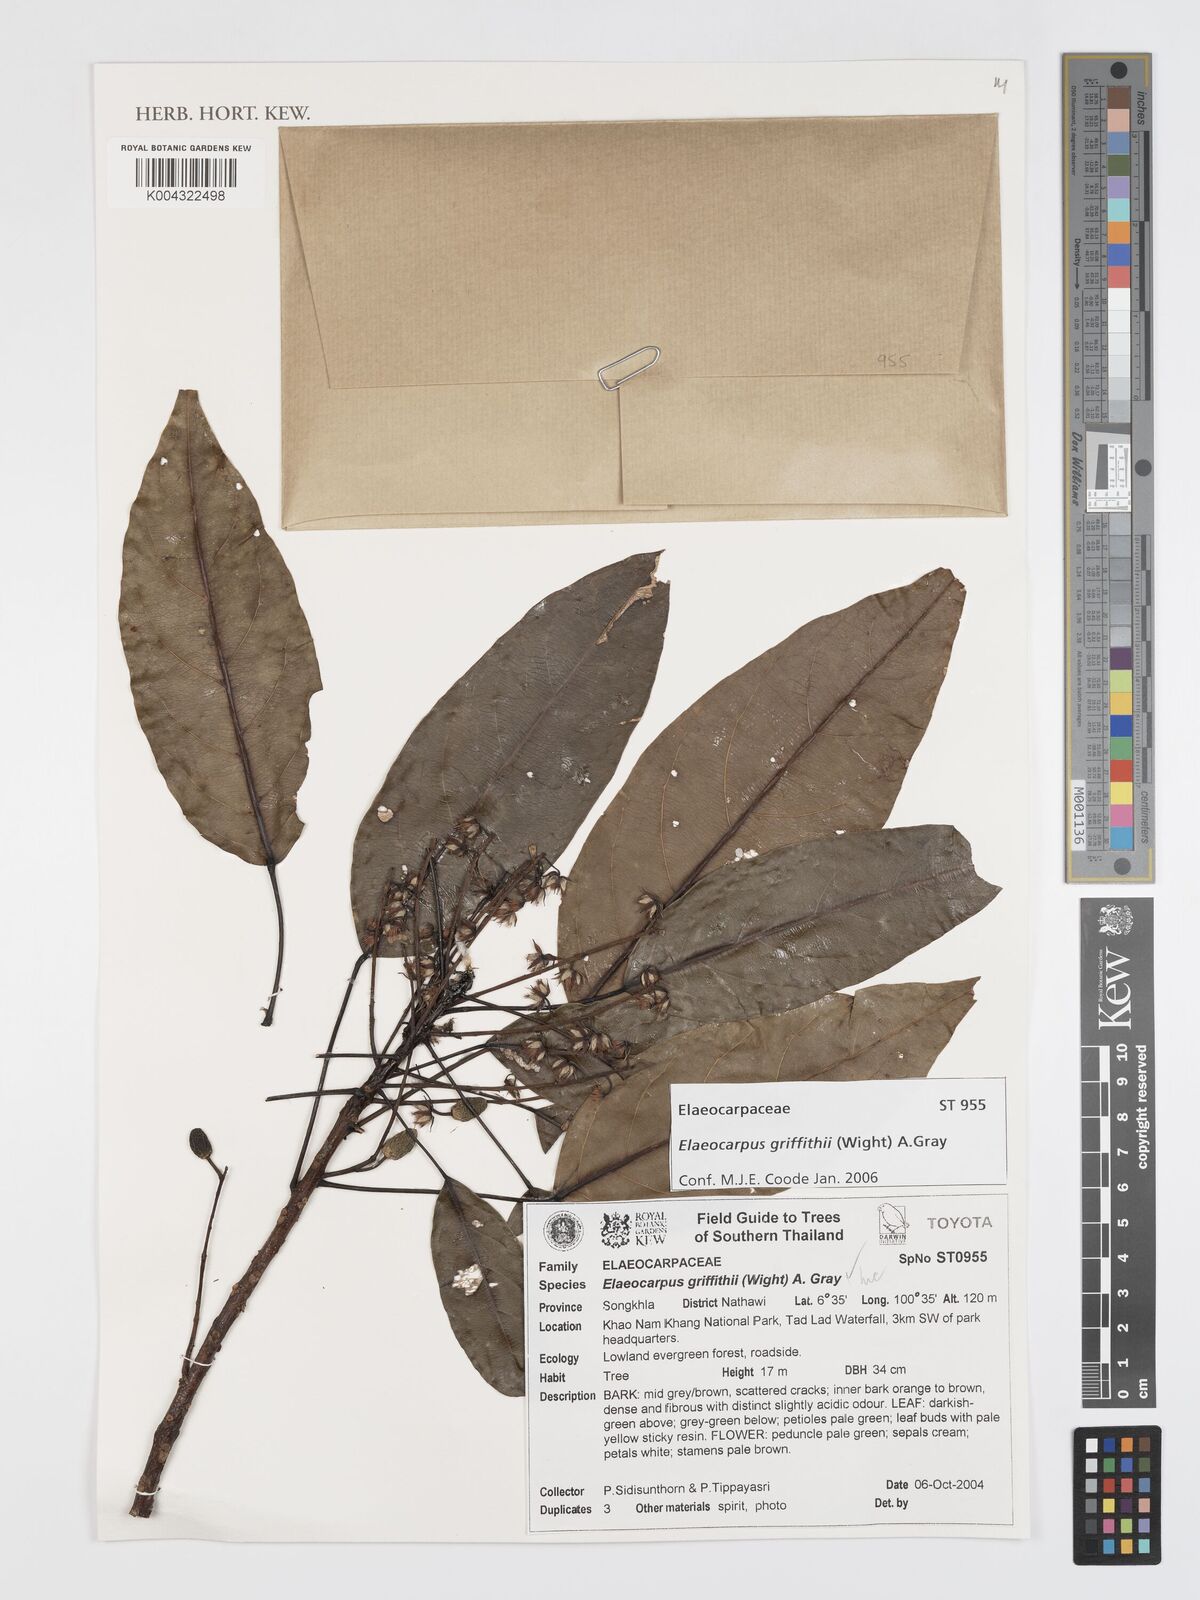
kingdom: Plantae
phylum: Tracheophyta
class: Magnoliopsida
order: Oxalidales
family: Elaeocarpaceae
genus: Elaeocarpus
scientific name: Elaeocarpus griffithii
